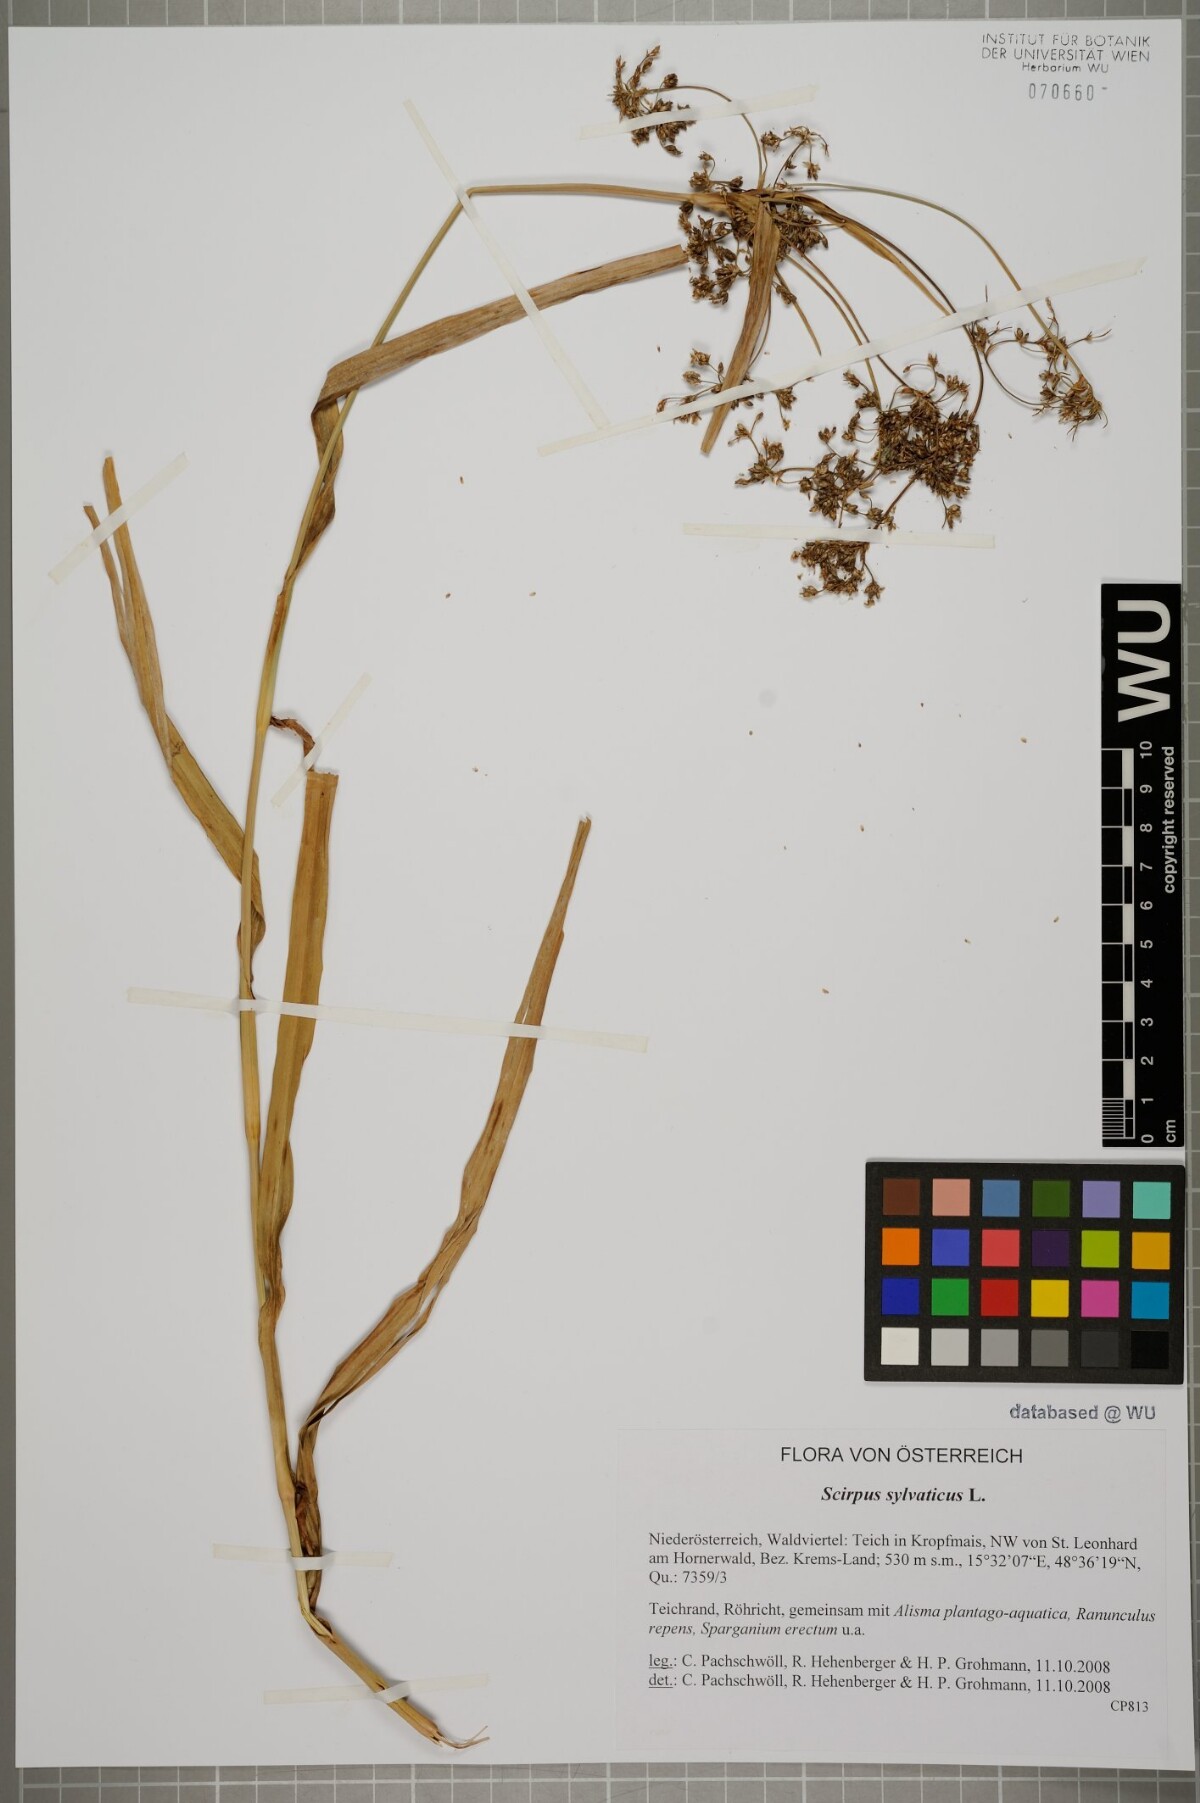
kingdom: Plantae
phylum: Tracheophyta
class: Liliopsida
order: Poales
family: Cyperaceae
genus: Scirpus
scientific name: Scirpus sylvaticus
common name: Wood club-rush
